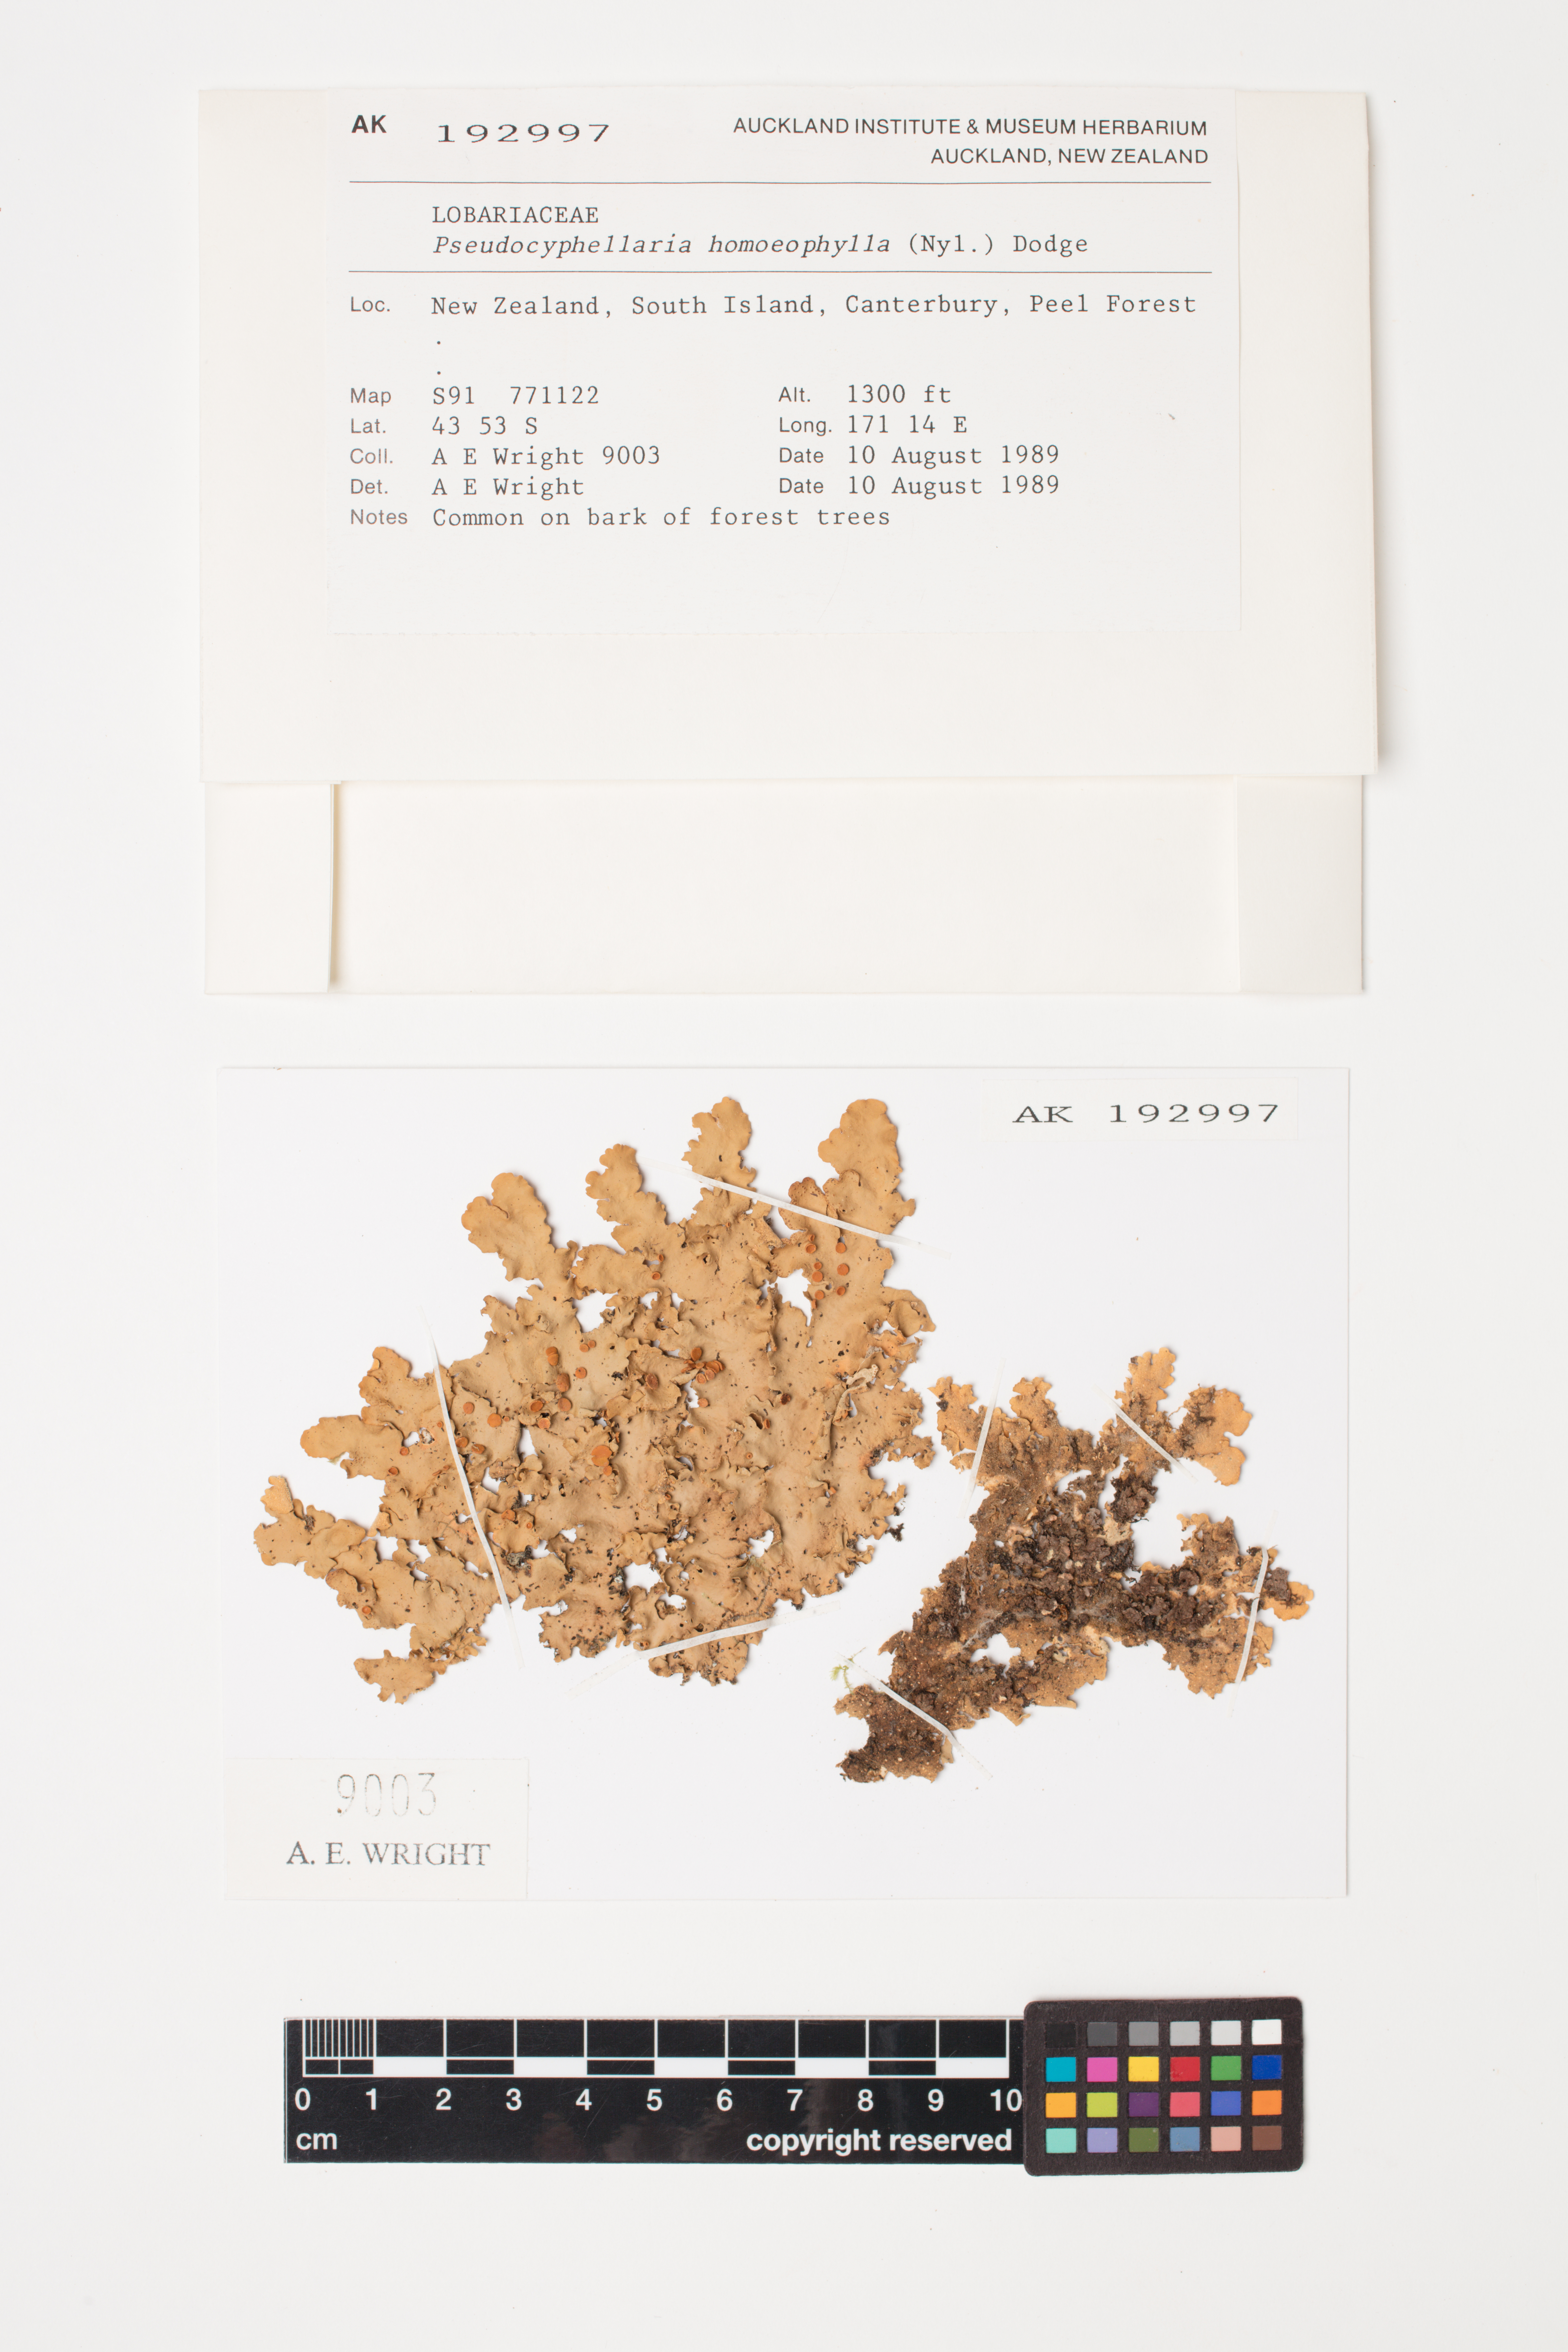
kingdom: Fungi
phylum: Ascomycota
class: Lecanoromycetes
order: Peltigerales
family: Lobariaceae
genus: Pseudocyphellaria
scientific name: Pseudocyphellaria homeophylla
